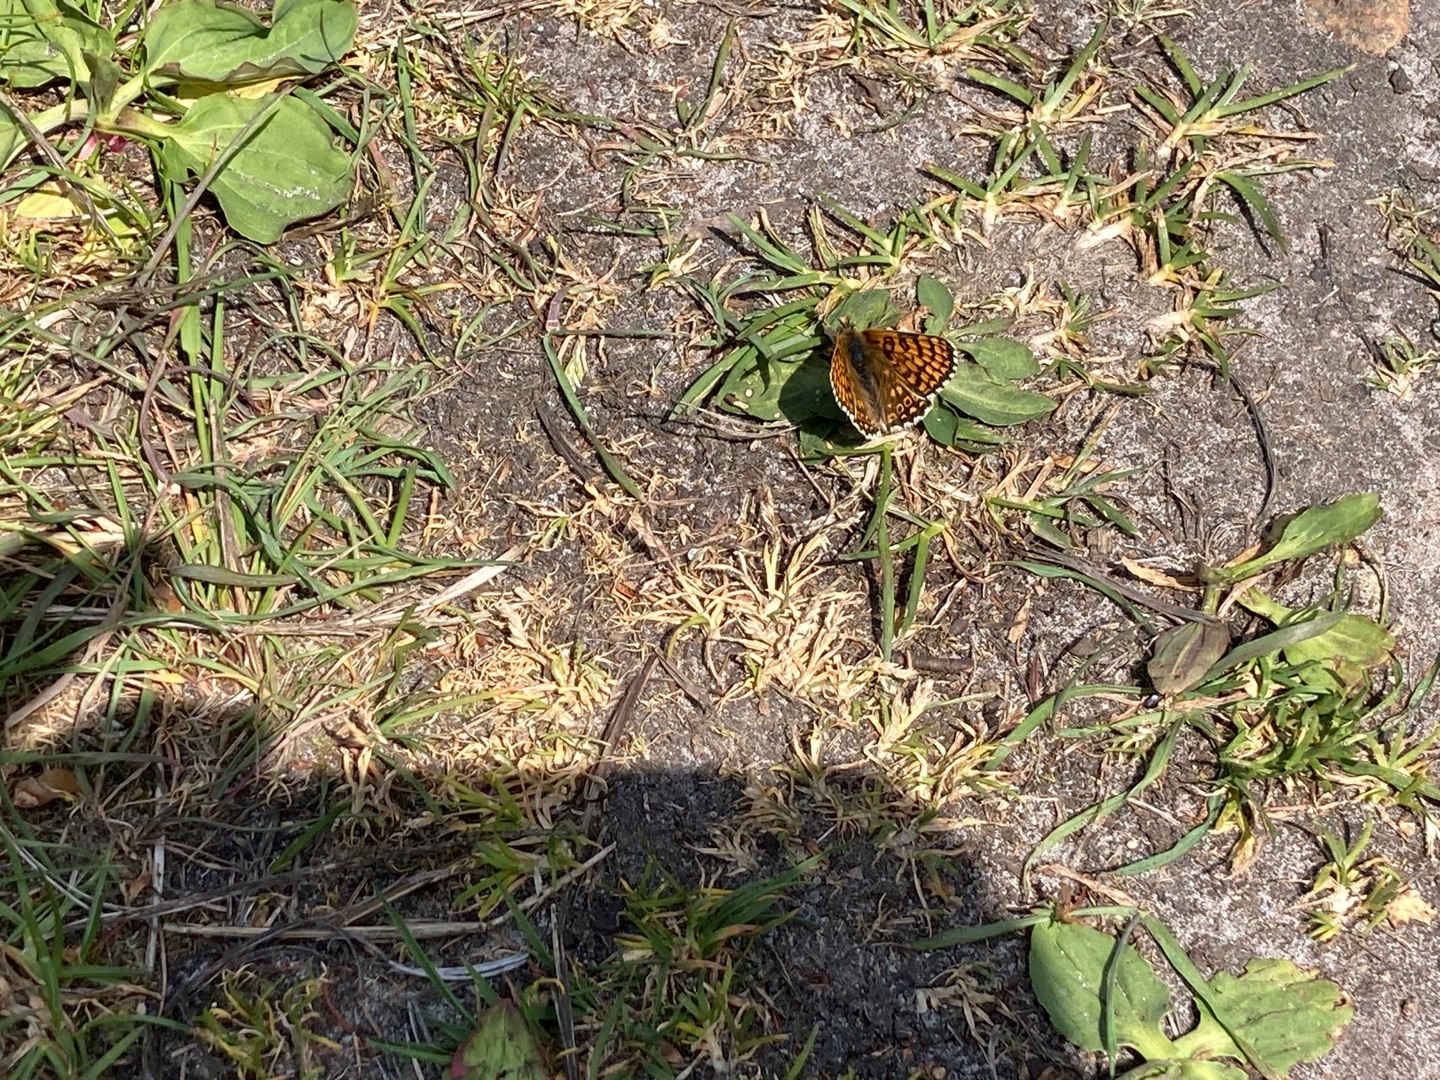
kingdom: Animalia
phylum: Arthropoda
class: Insecta
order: Lepidoptera
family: Nymphalidae
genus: Melitaea
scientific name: Melitaea cinxia
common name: Okkergul pletvinge
